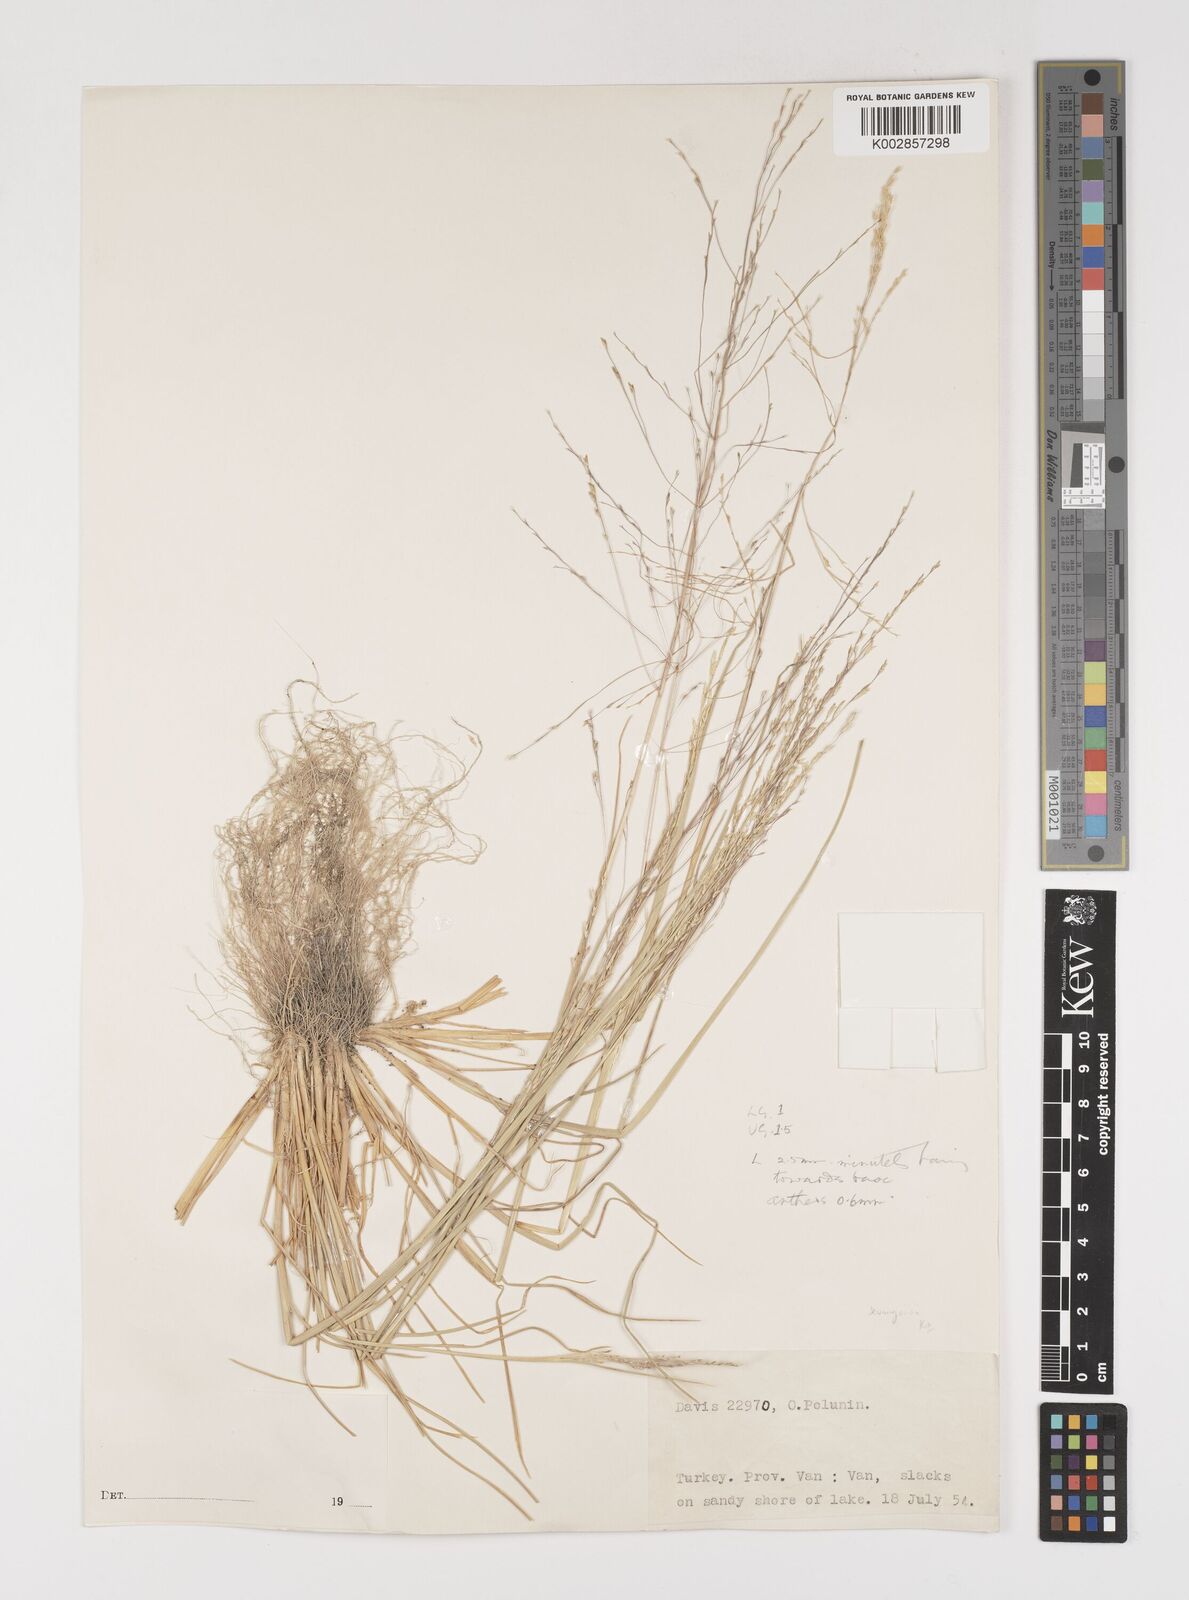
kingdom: Plantae
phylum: Tracheophyta
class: Liliopsida
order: Poales
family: Poaceae
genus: Puccinellia
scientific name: Puccinellia
